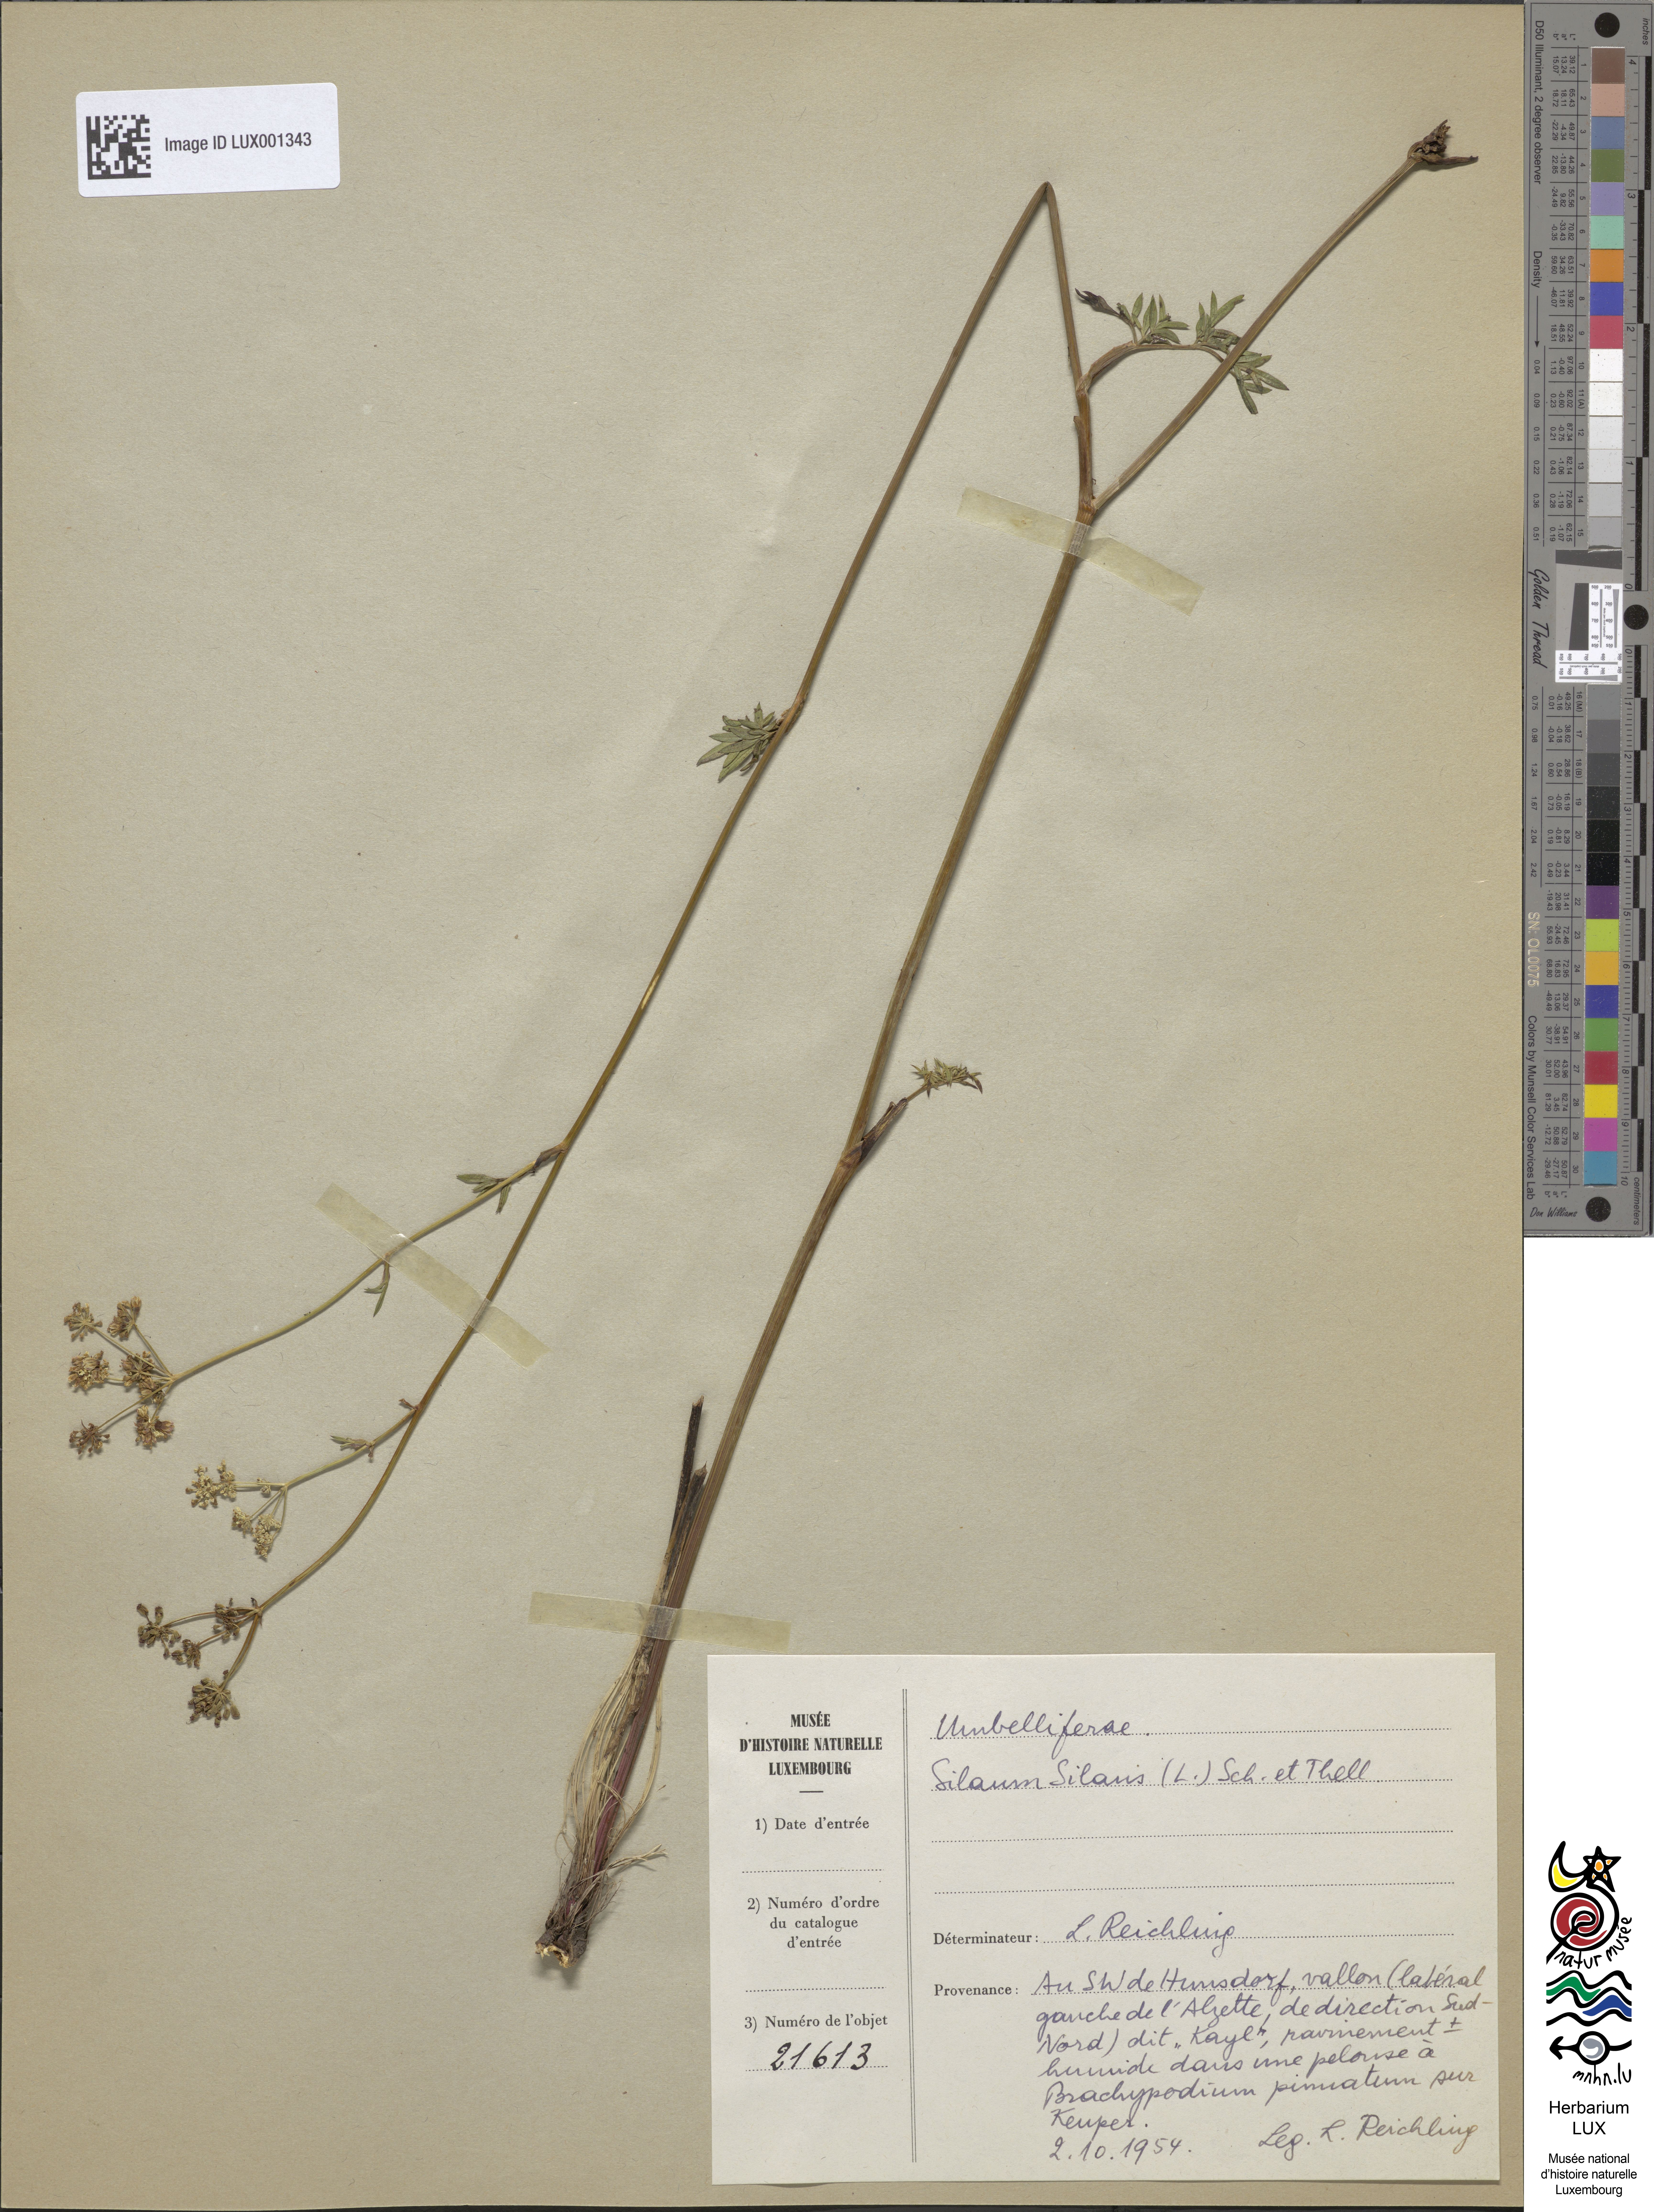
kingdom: Plantae
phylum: Tracheophyta
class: Magnoliopsida
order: Apiales
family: Apiaceae
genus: Silaum
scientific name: Silaum silaus
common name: Pepper-saxifrage
